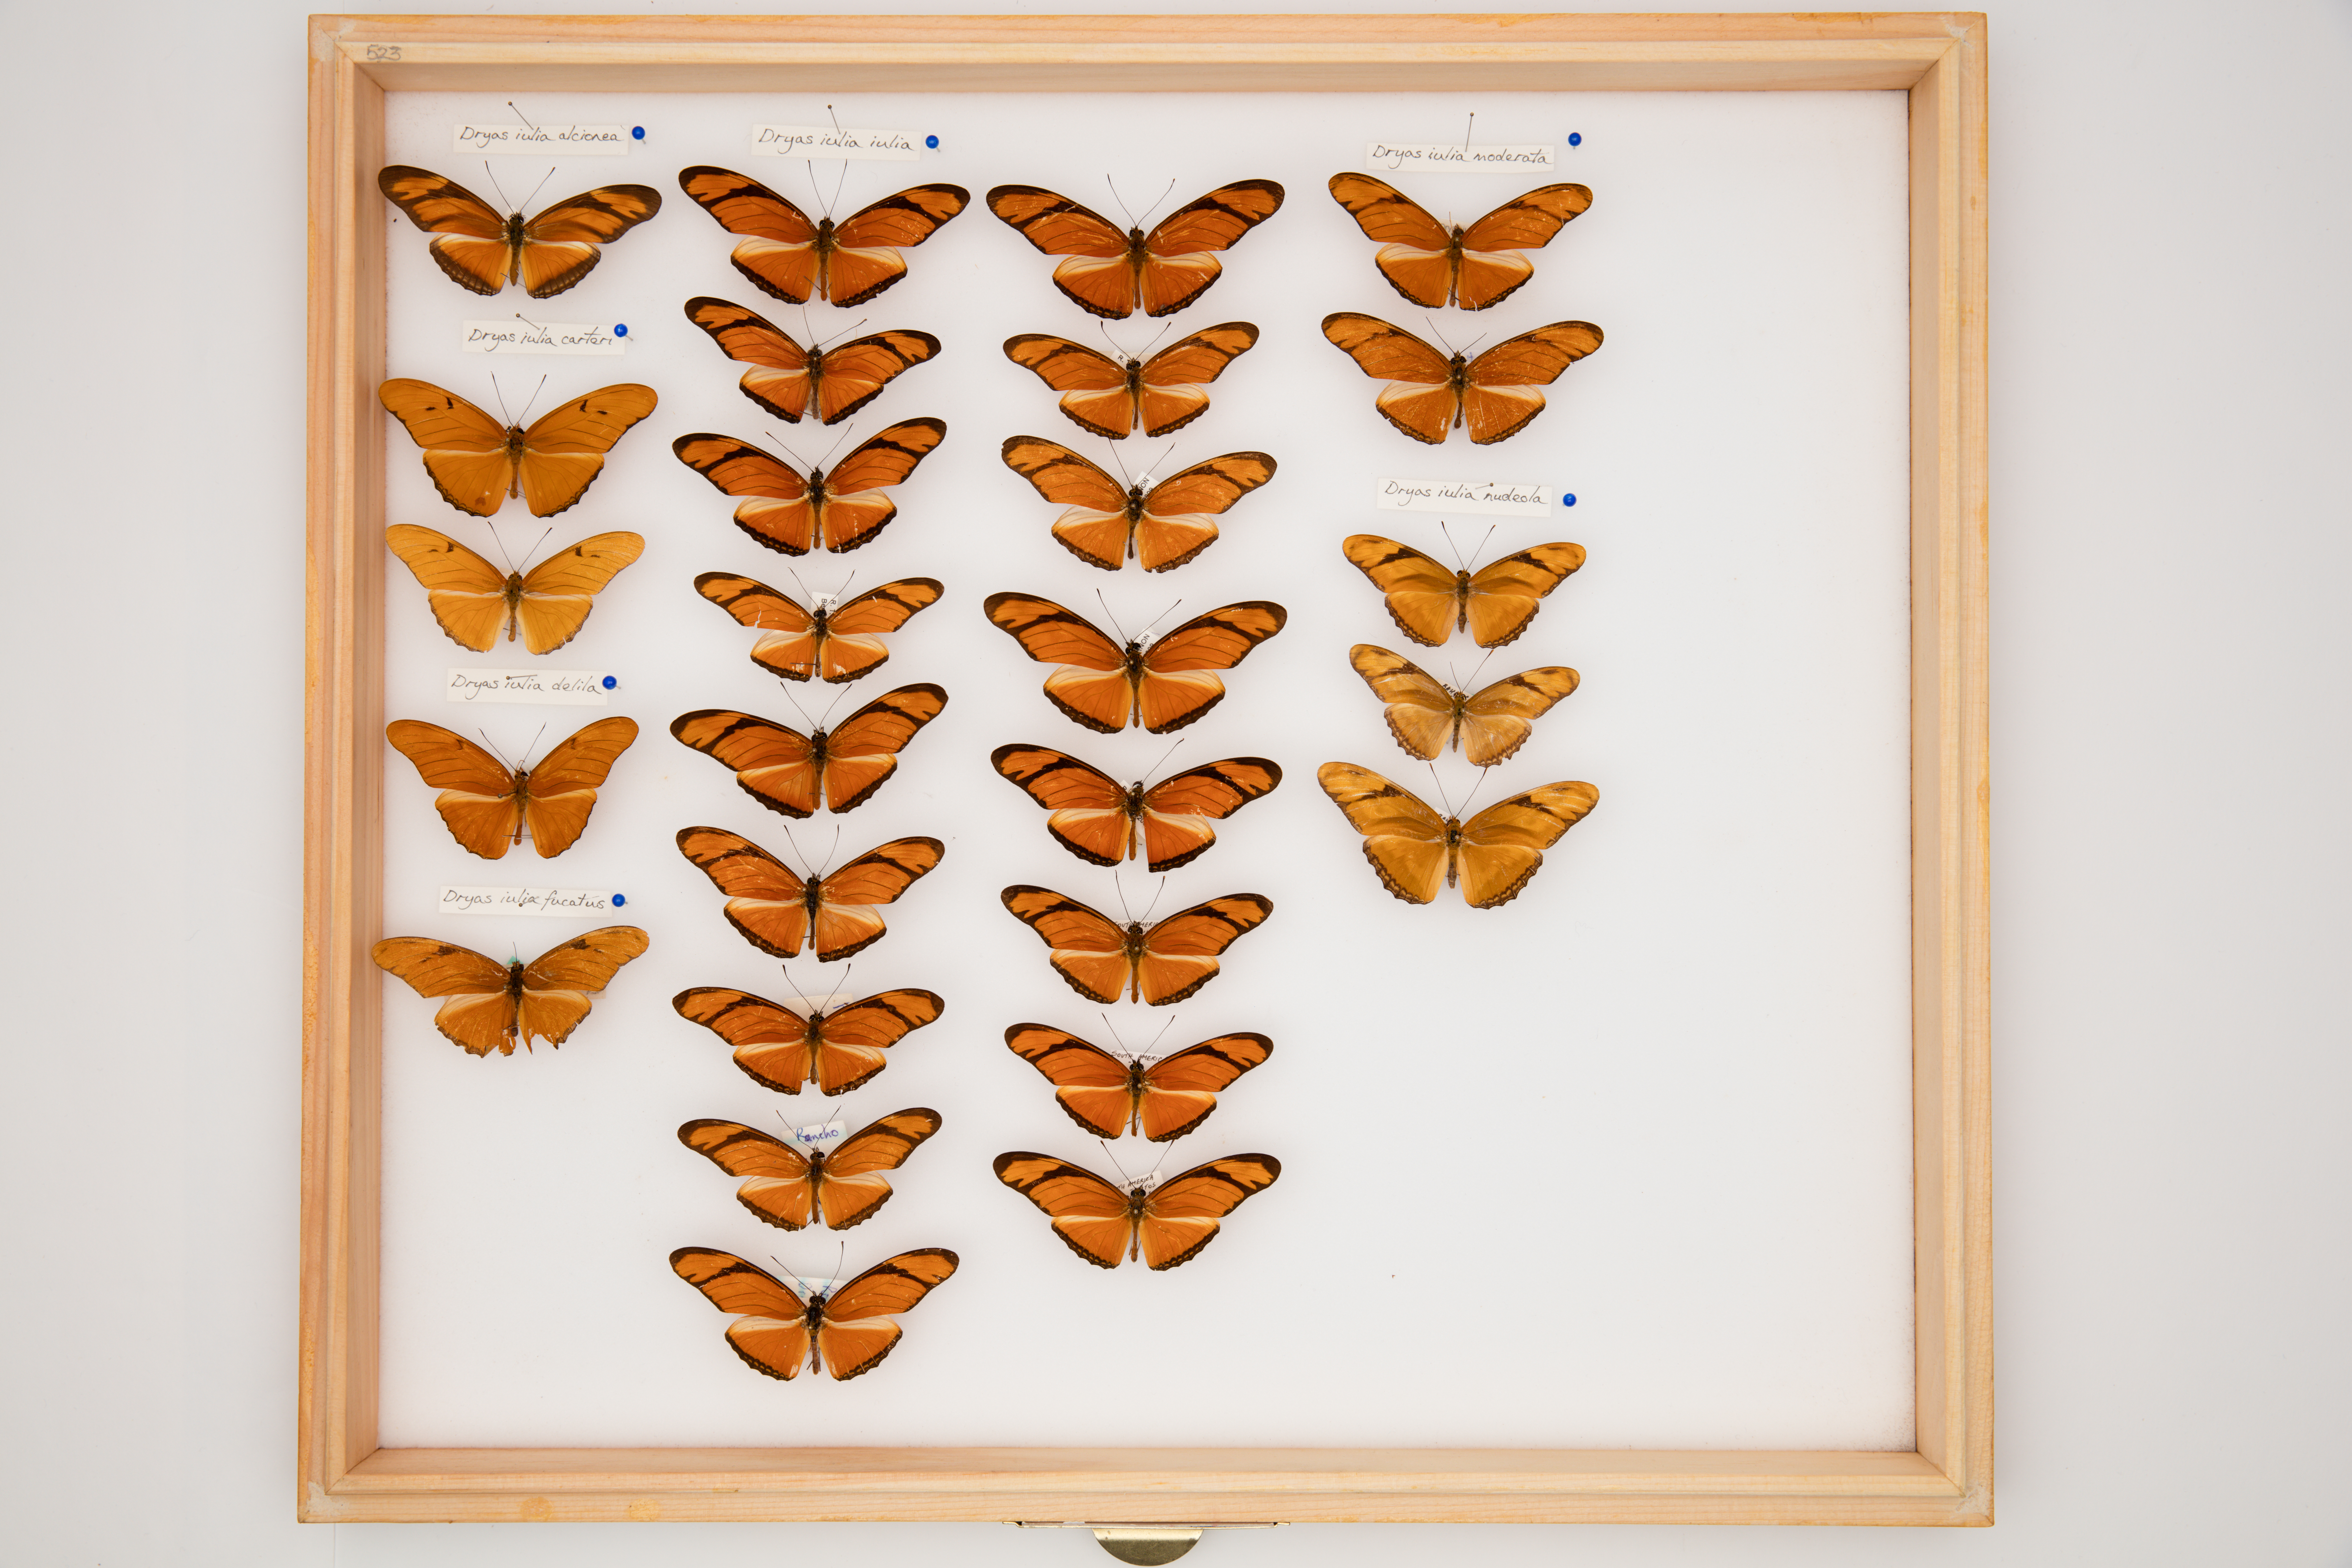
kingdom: Animalia
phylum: Arthropoda
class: Insecta
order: Lepidoptera
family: Nymphalidae
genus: Dryas
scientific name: Dryas iulia
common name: Flambeau
